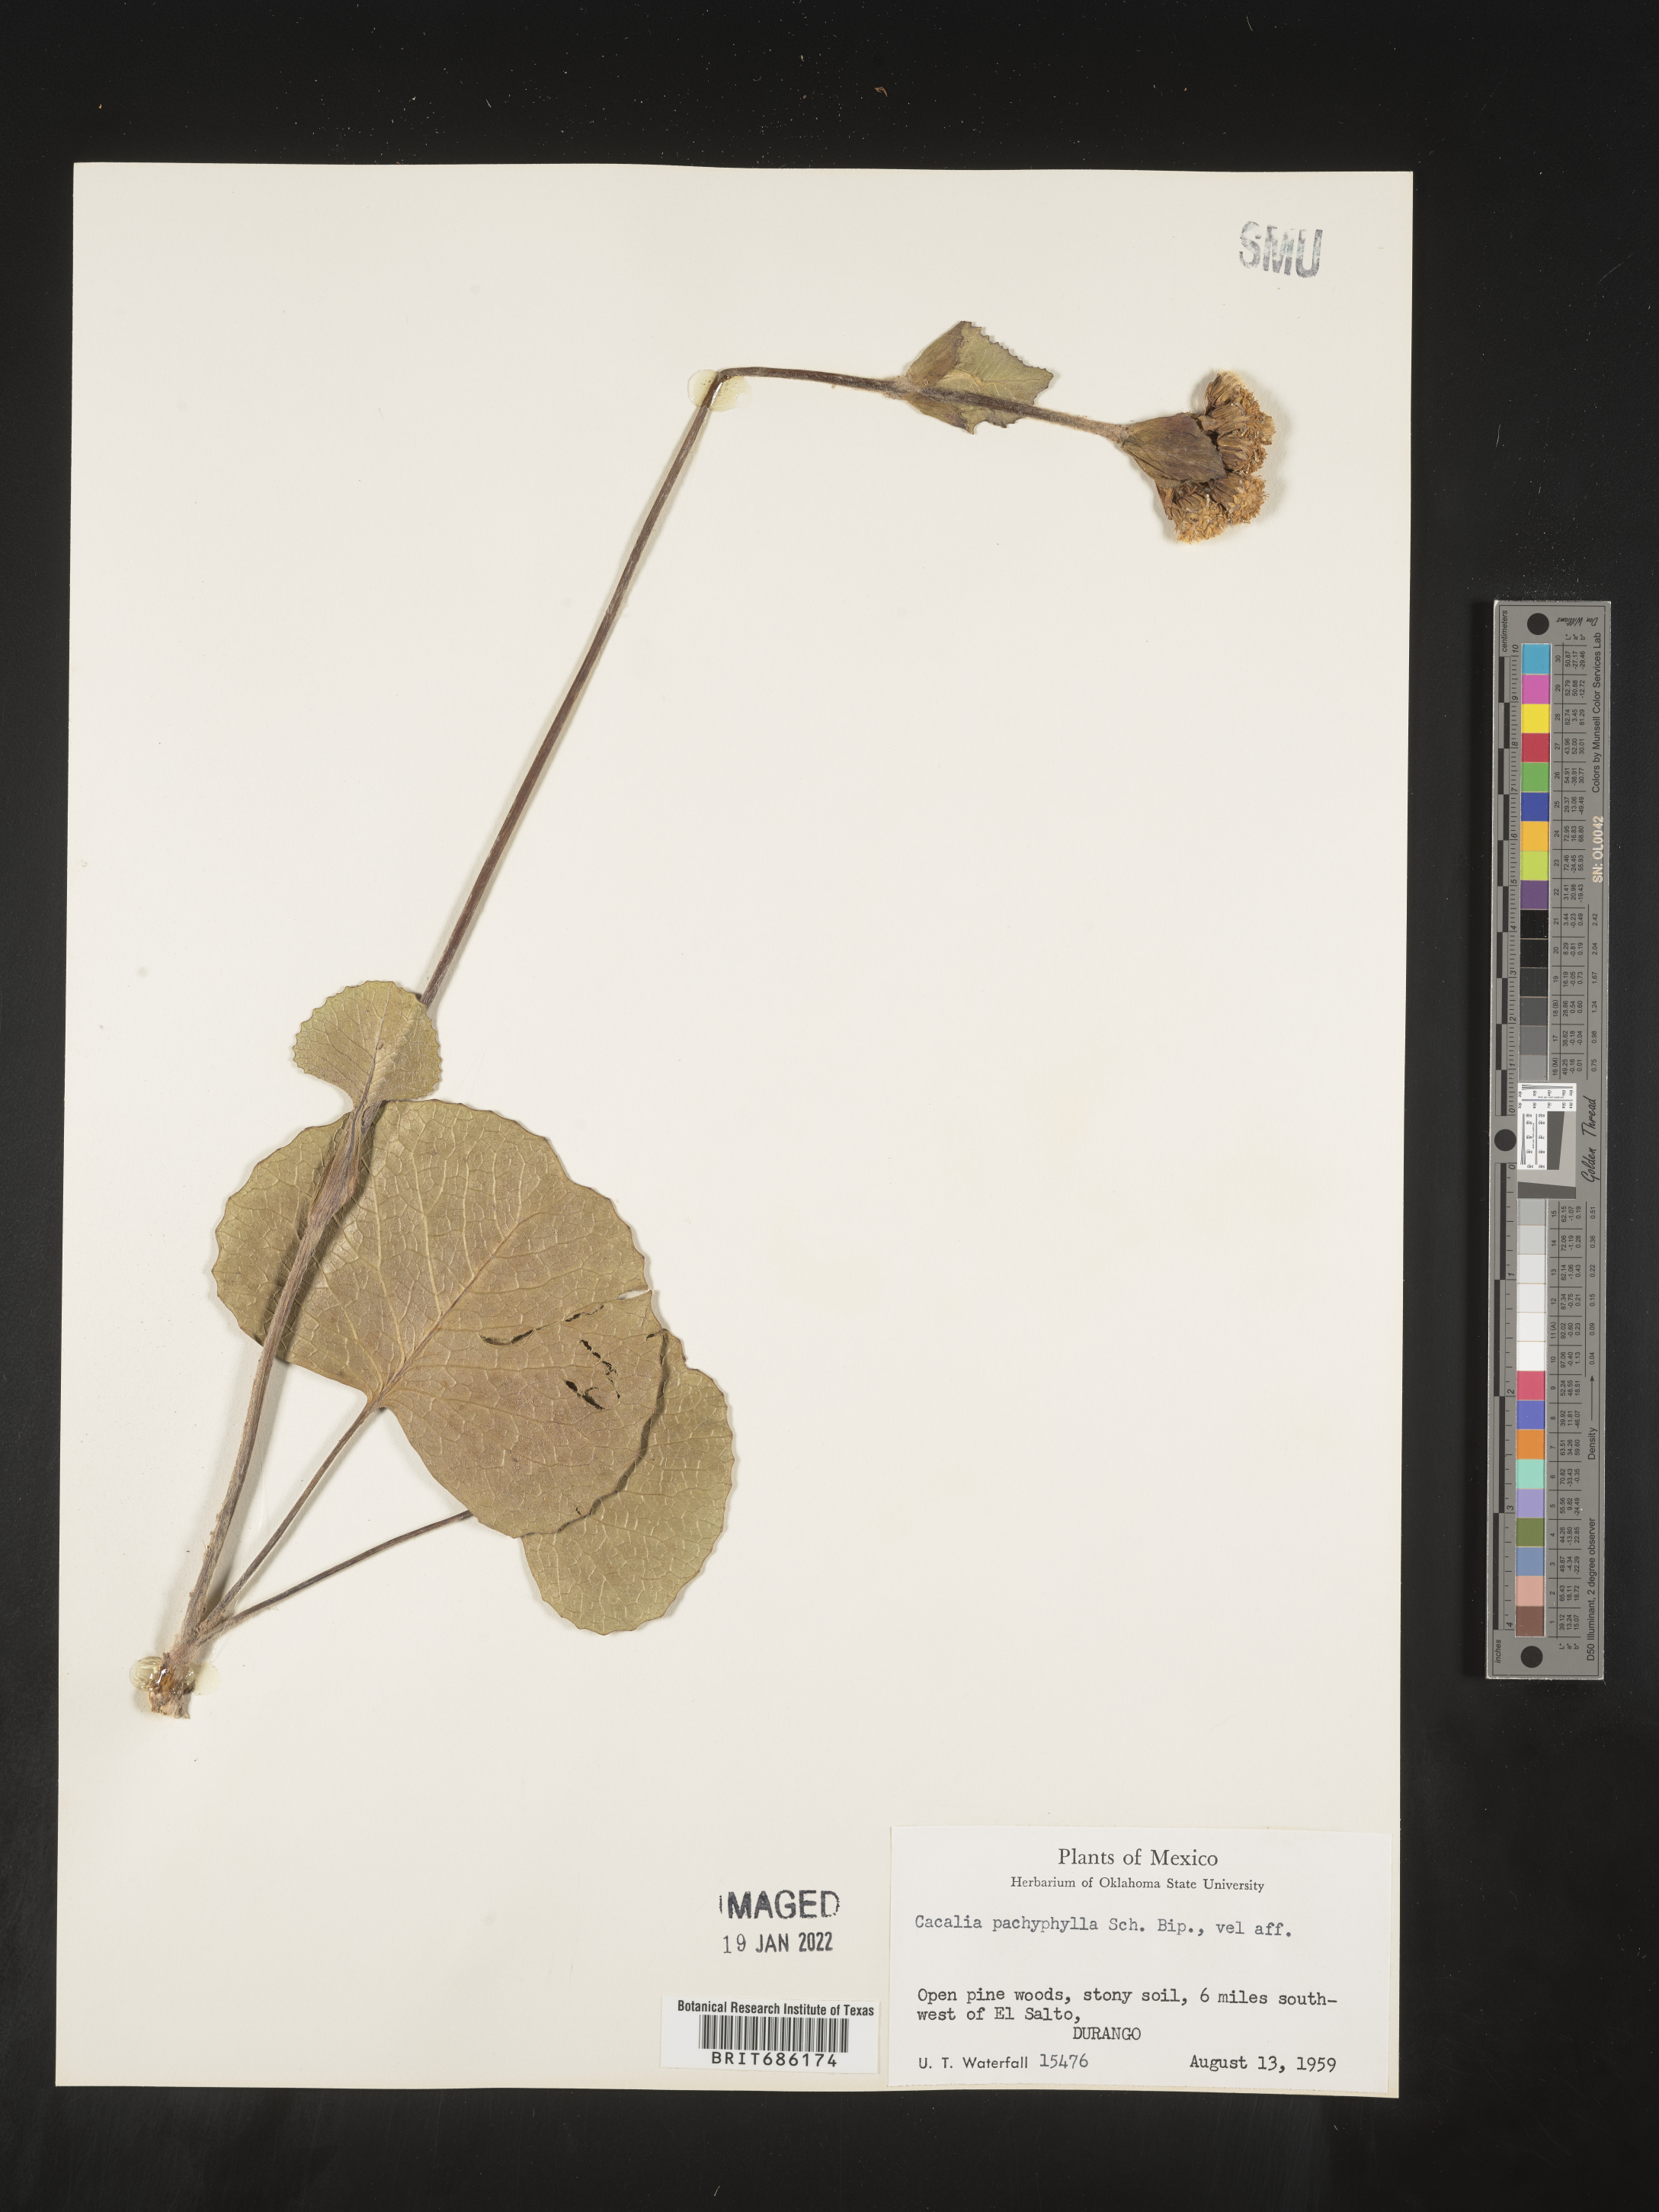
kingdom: Plantae
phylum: Tracheophyta
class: Magnoliopsida
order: Asterales
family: Asteraceae
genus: Cacalia
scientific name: Cacalia
